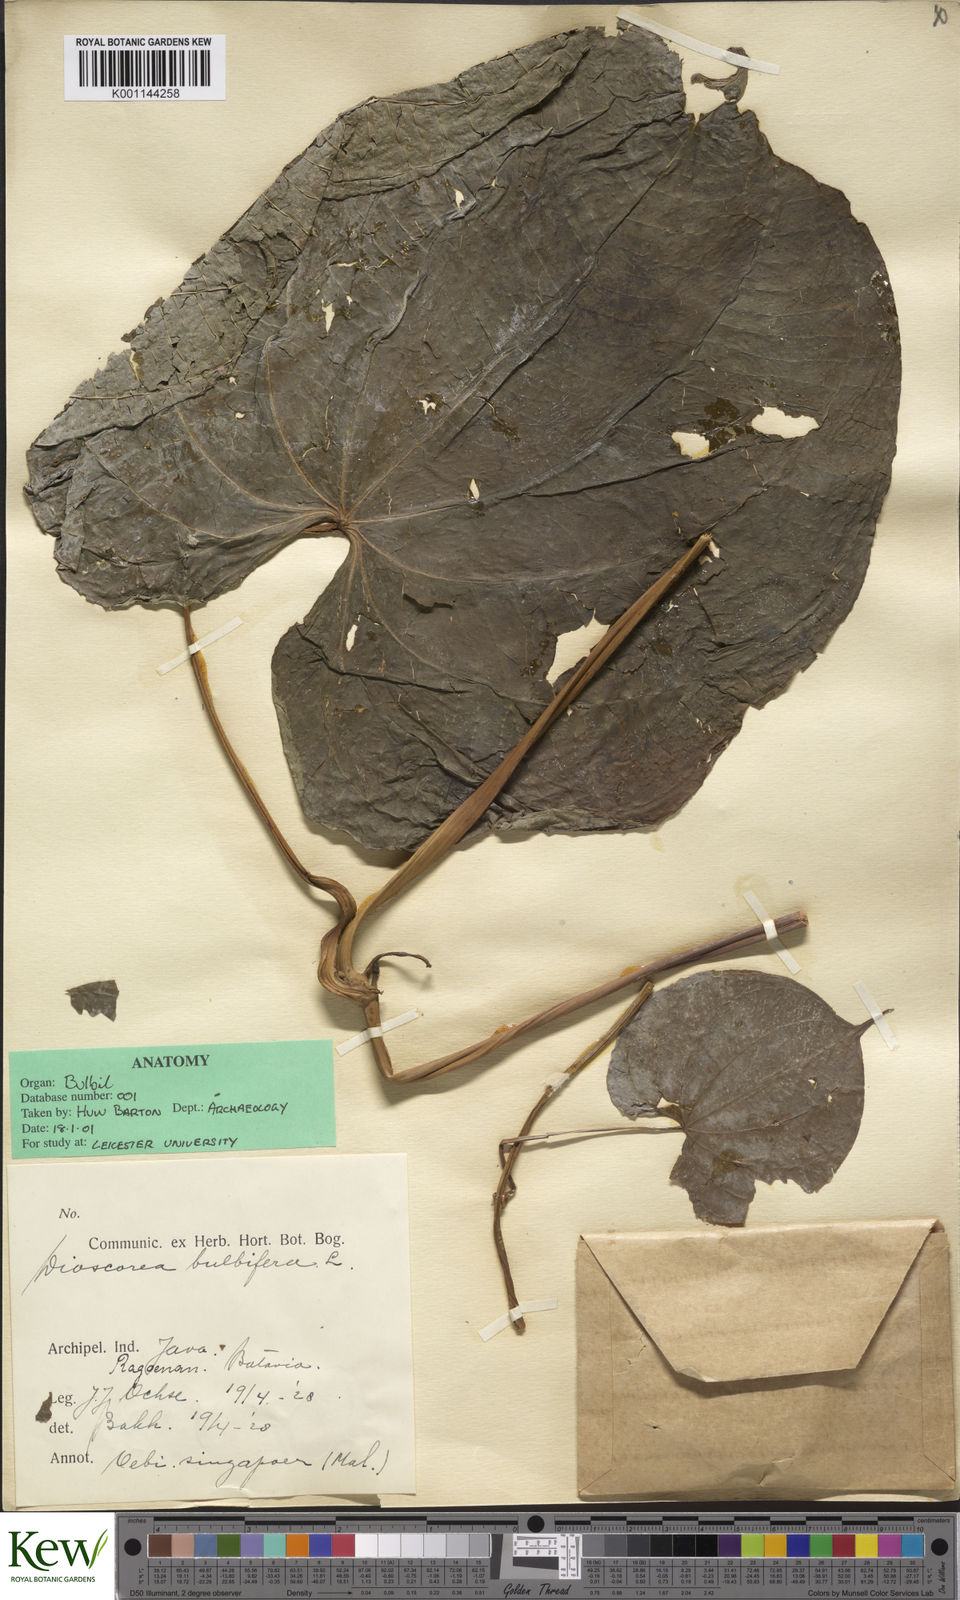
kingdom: Plantae
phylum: Tracheophyta
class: Liliopsida
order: Dioscoreales
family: Dioscoreaceae
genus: Dioscorea
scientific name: Dioscorea bulbifera
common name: Air yam
